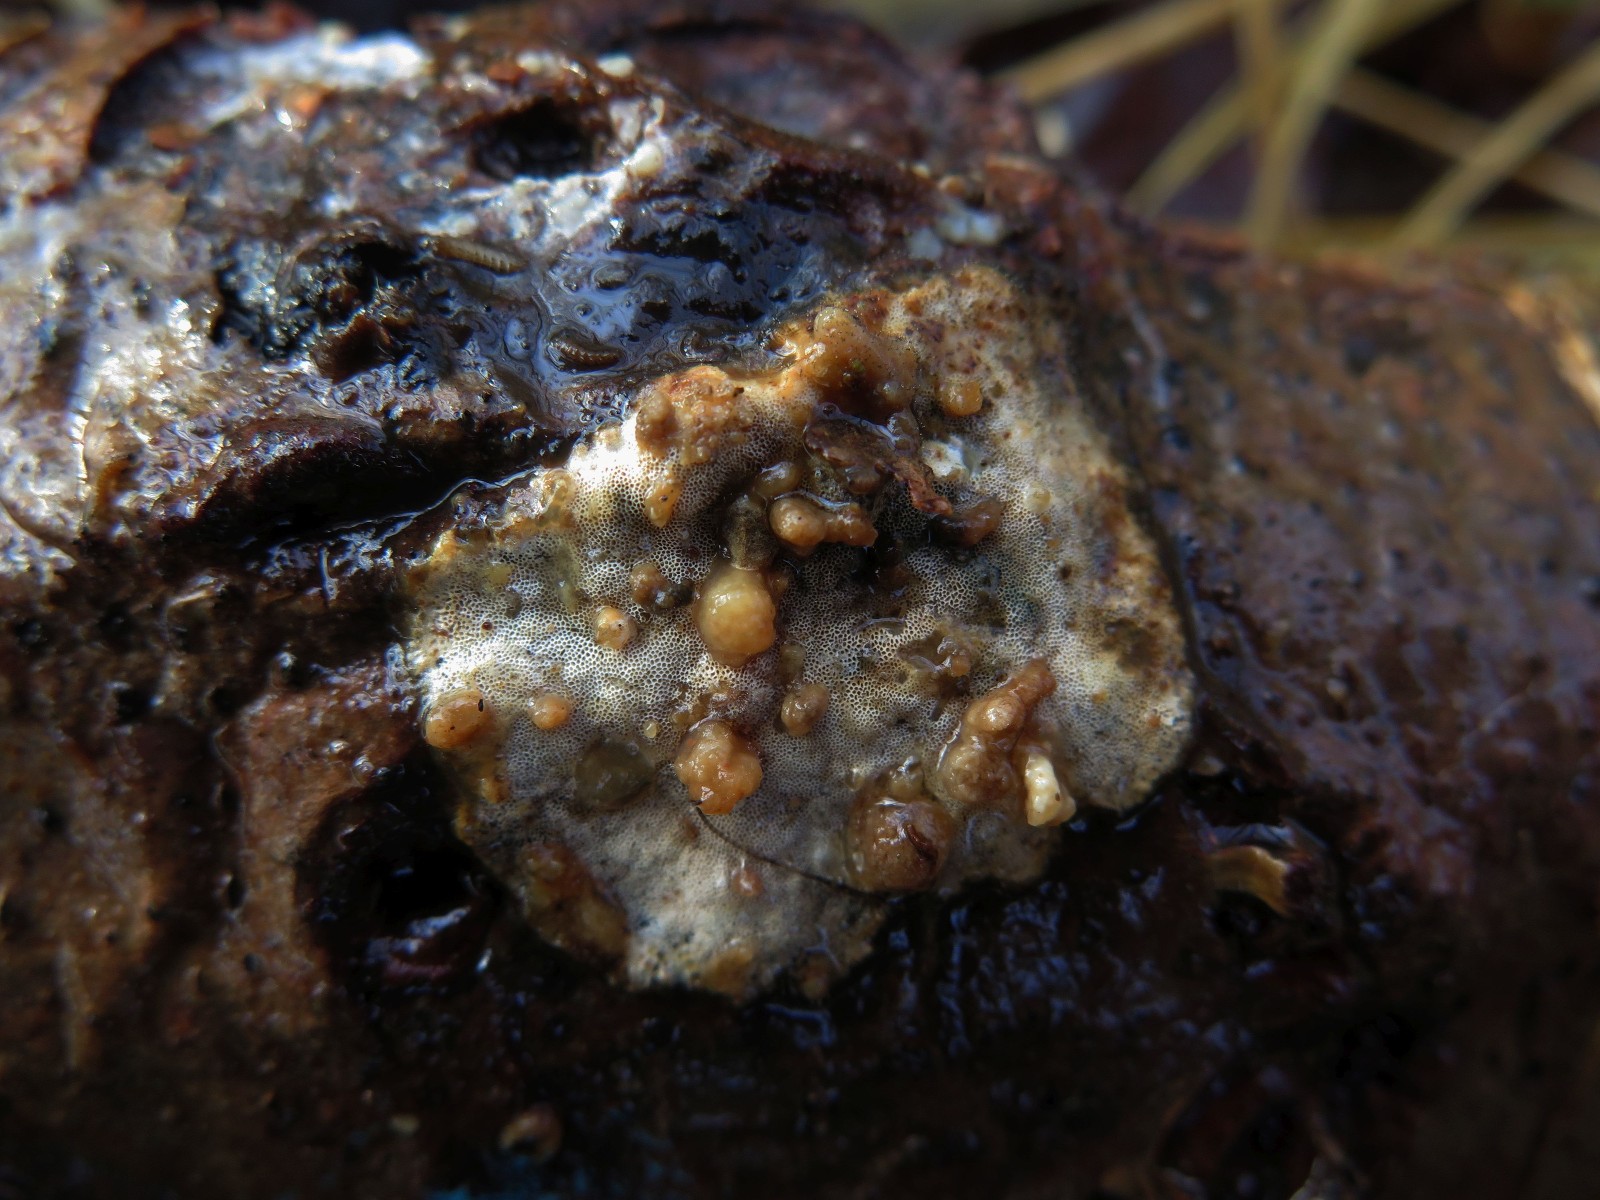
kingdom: Fungi
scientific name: Fungi
